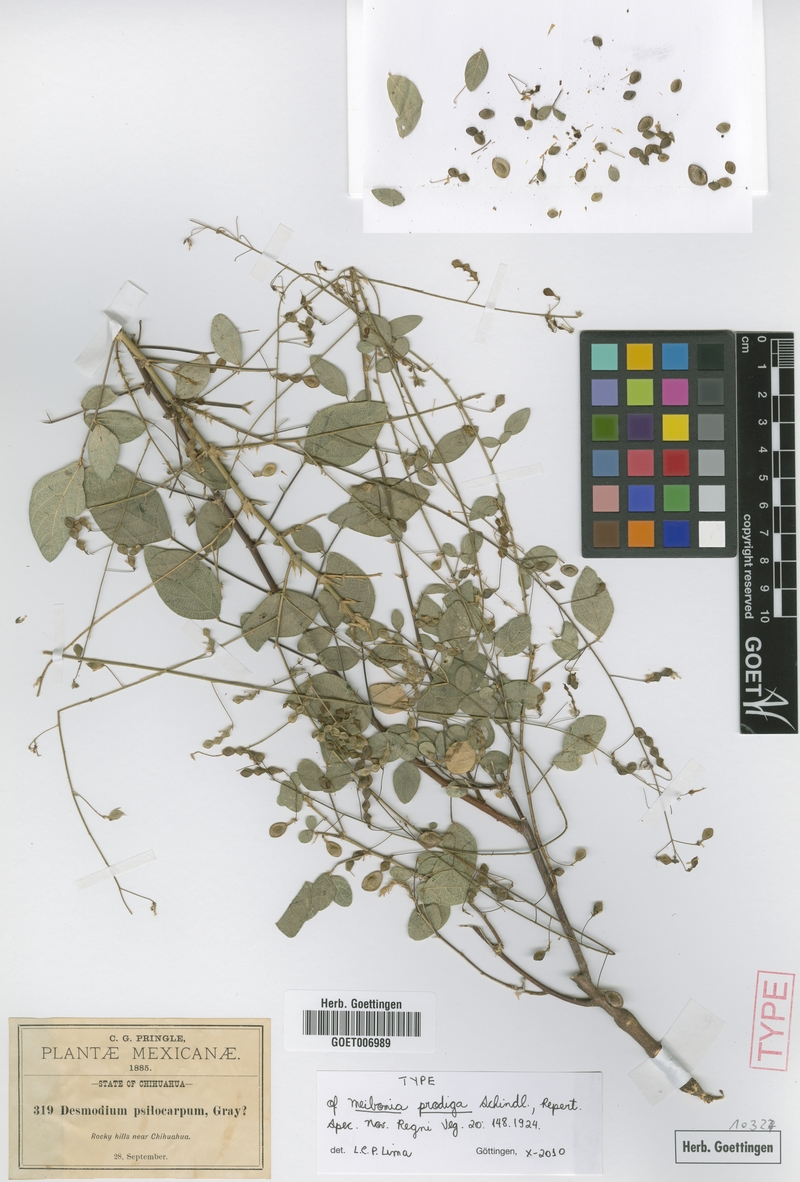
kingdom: Plantae
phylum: Tracheophyta
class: Magnoliopsida
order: Fabales
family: Fabaceae
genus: Desmodium
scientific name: Desmodium prodigum
